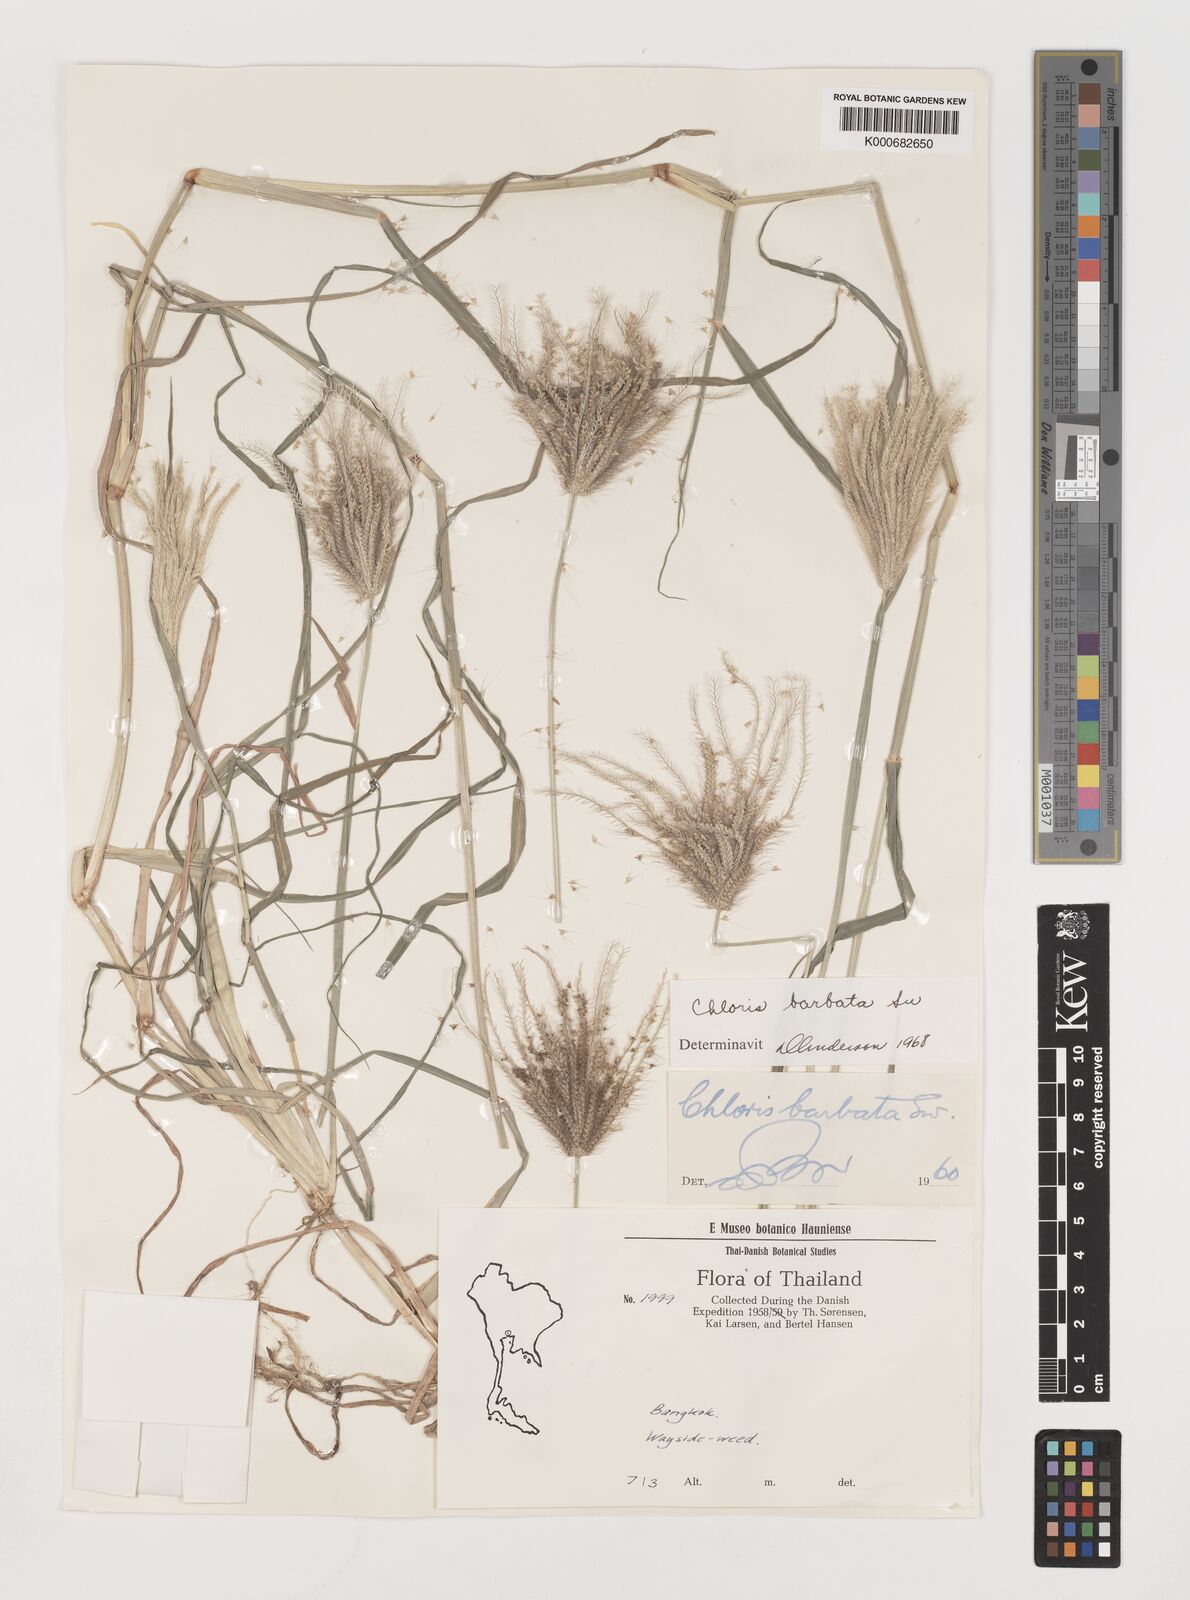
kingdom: Plantae
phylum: Tracheophyta
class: Liliopsida
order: Poales
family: Poaceae
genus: Chloris
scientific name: Chloris barbata
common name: Swollen fingergrass
